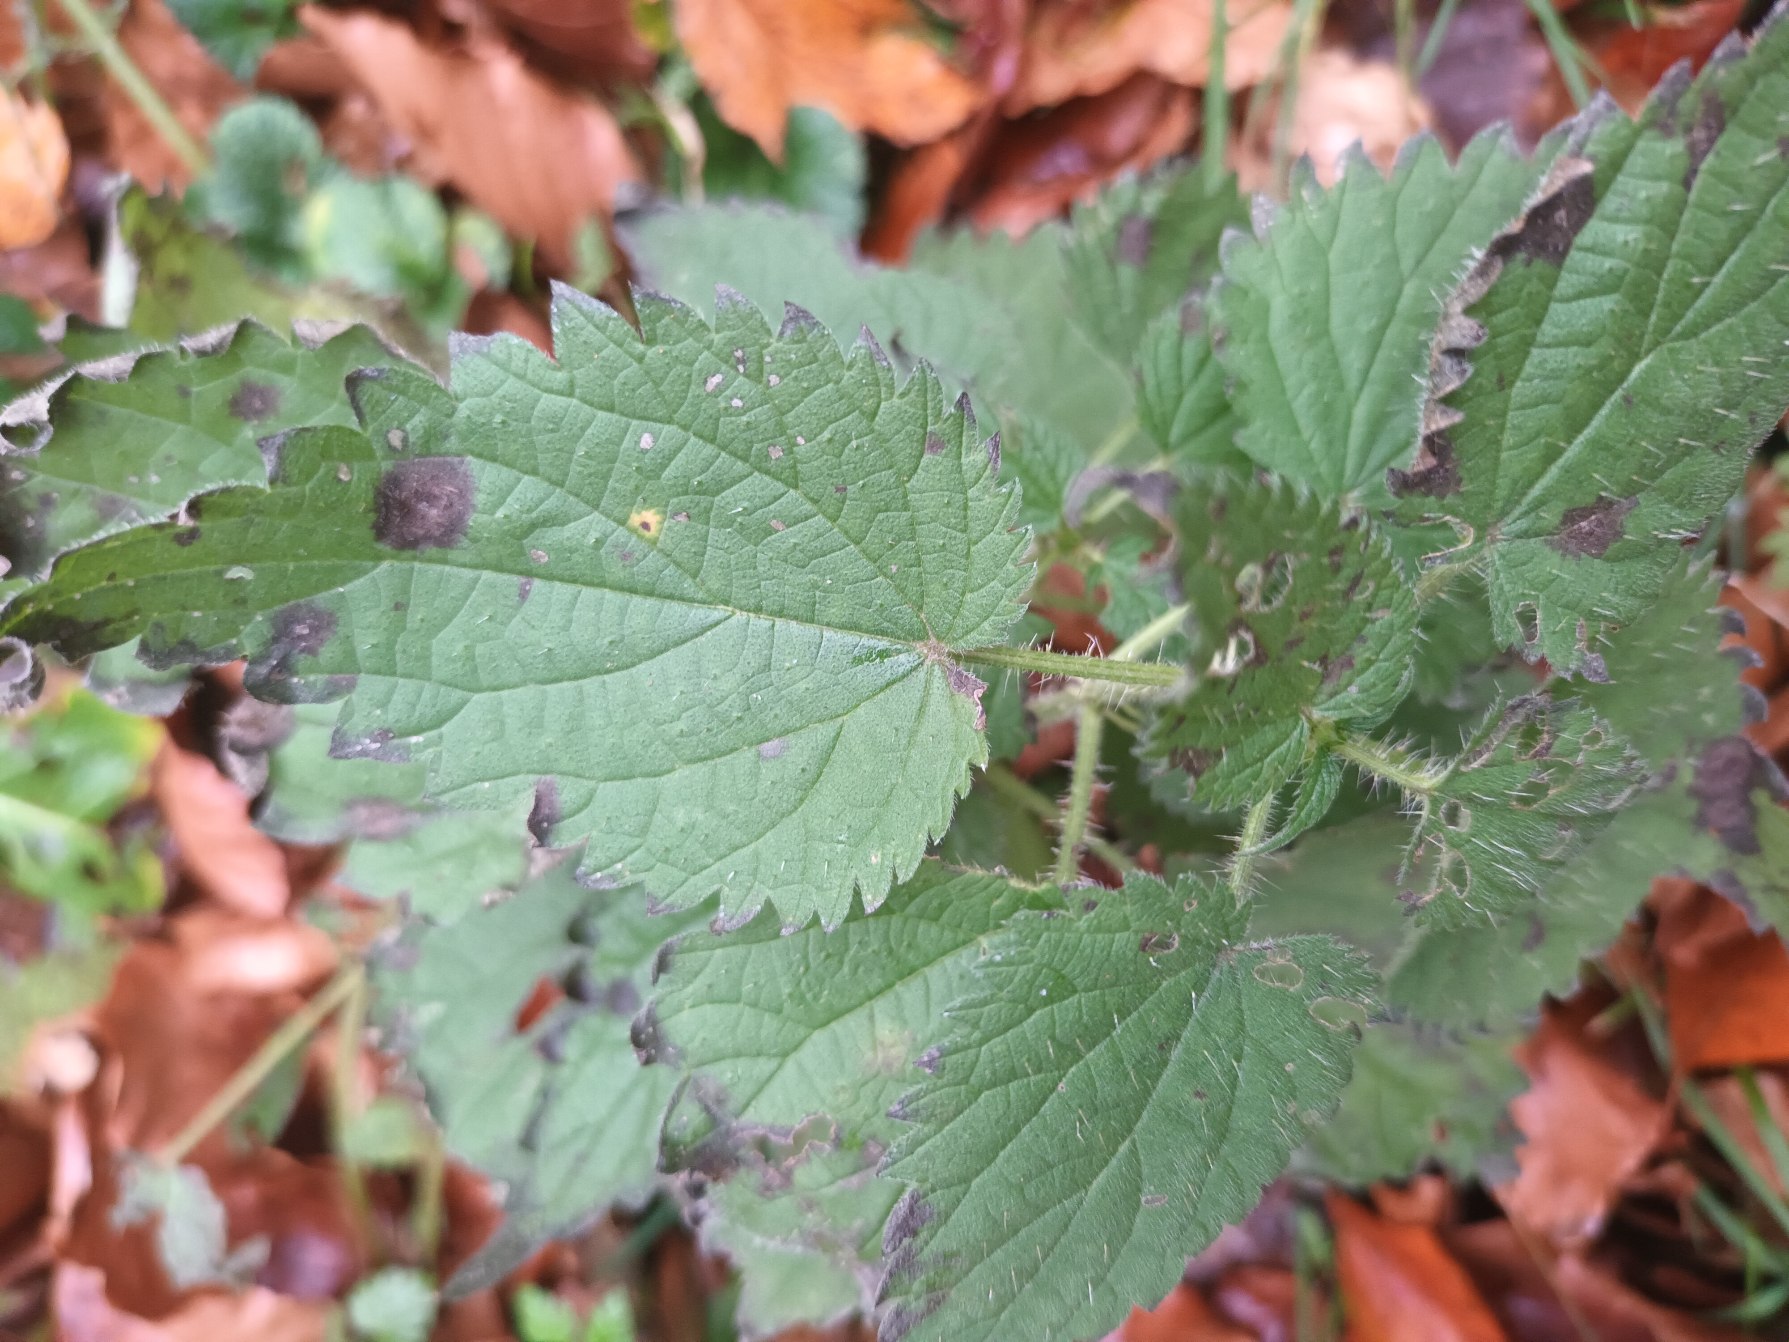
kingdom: Plantae
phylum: Tracheophyta
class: Magnoliopsida
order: Rosales
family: Urticaceae
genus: Urtica
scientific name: Urtica dioica
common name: Stor nælde
